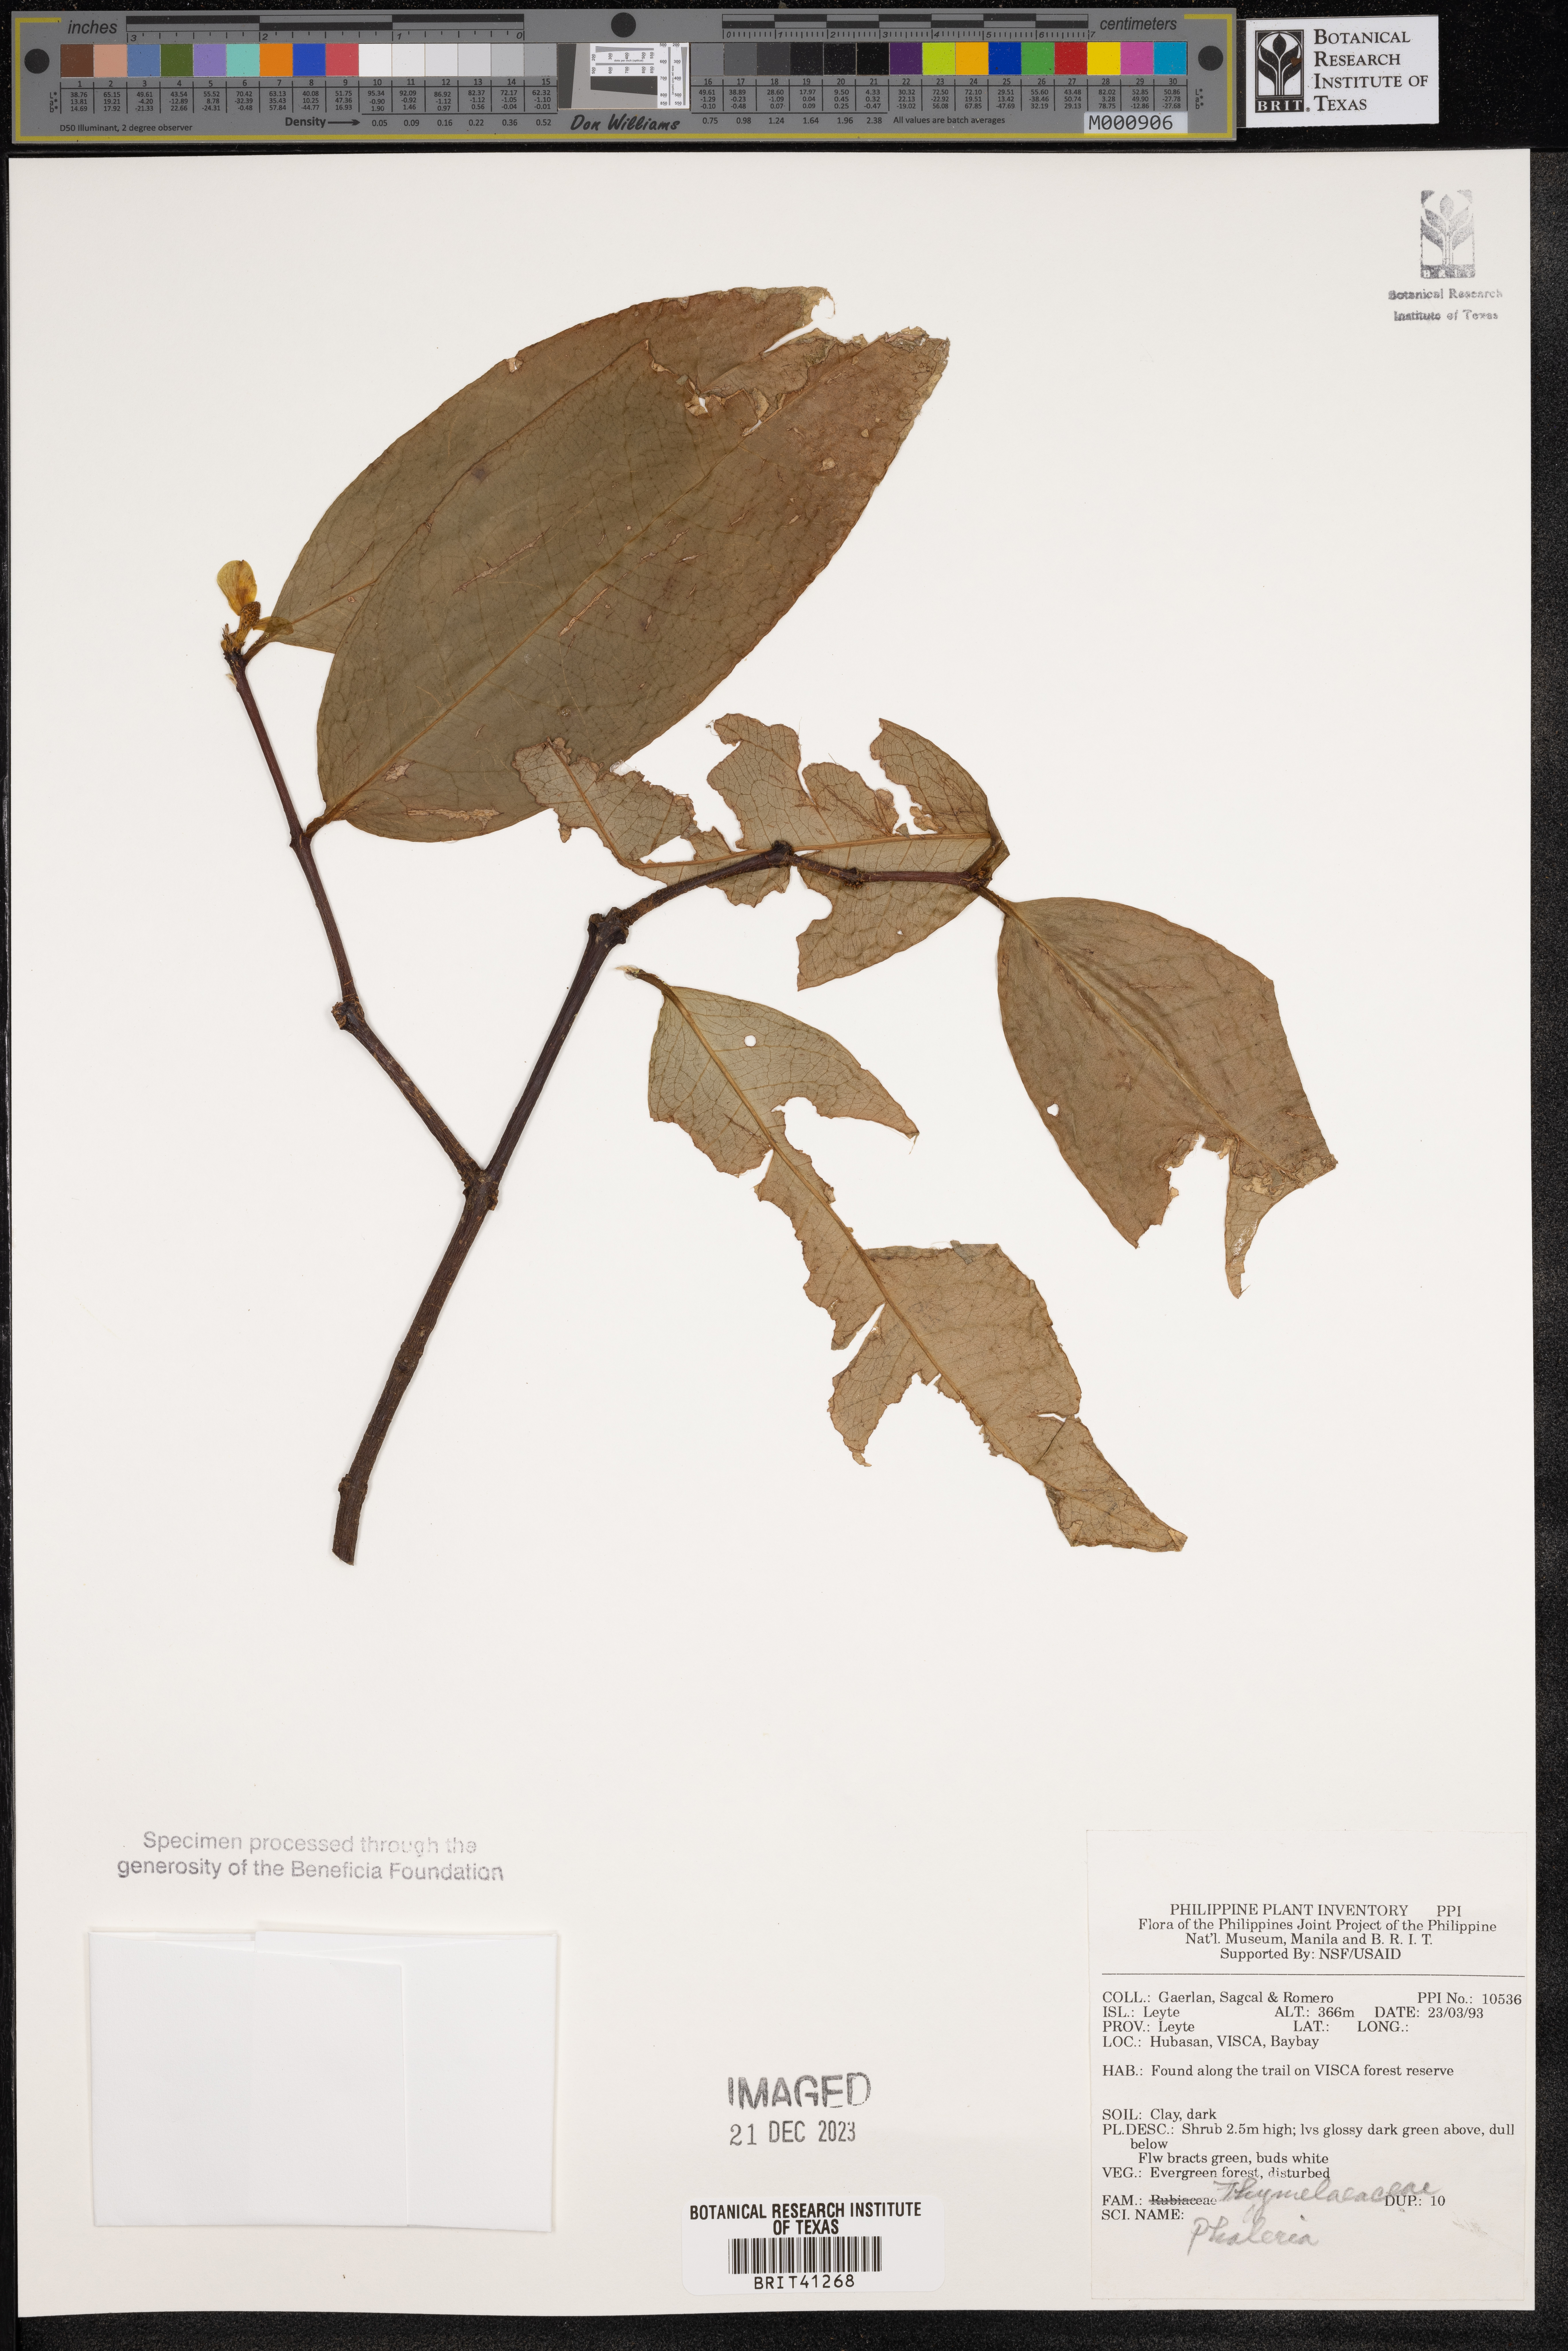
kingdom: Plantae
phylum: Tracheophyta
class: Magnoliopsida
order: Malvales
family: Thymelaeaceae
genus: Phaleria
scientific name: Phaleria
